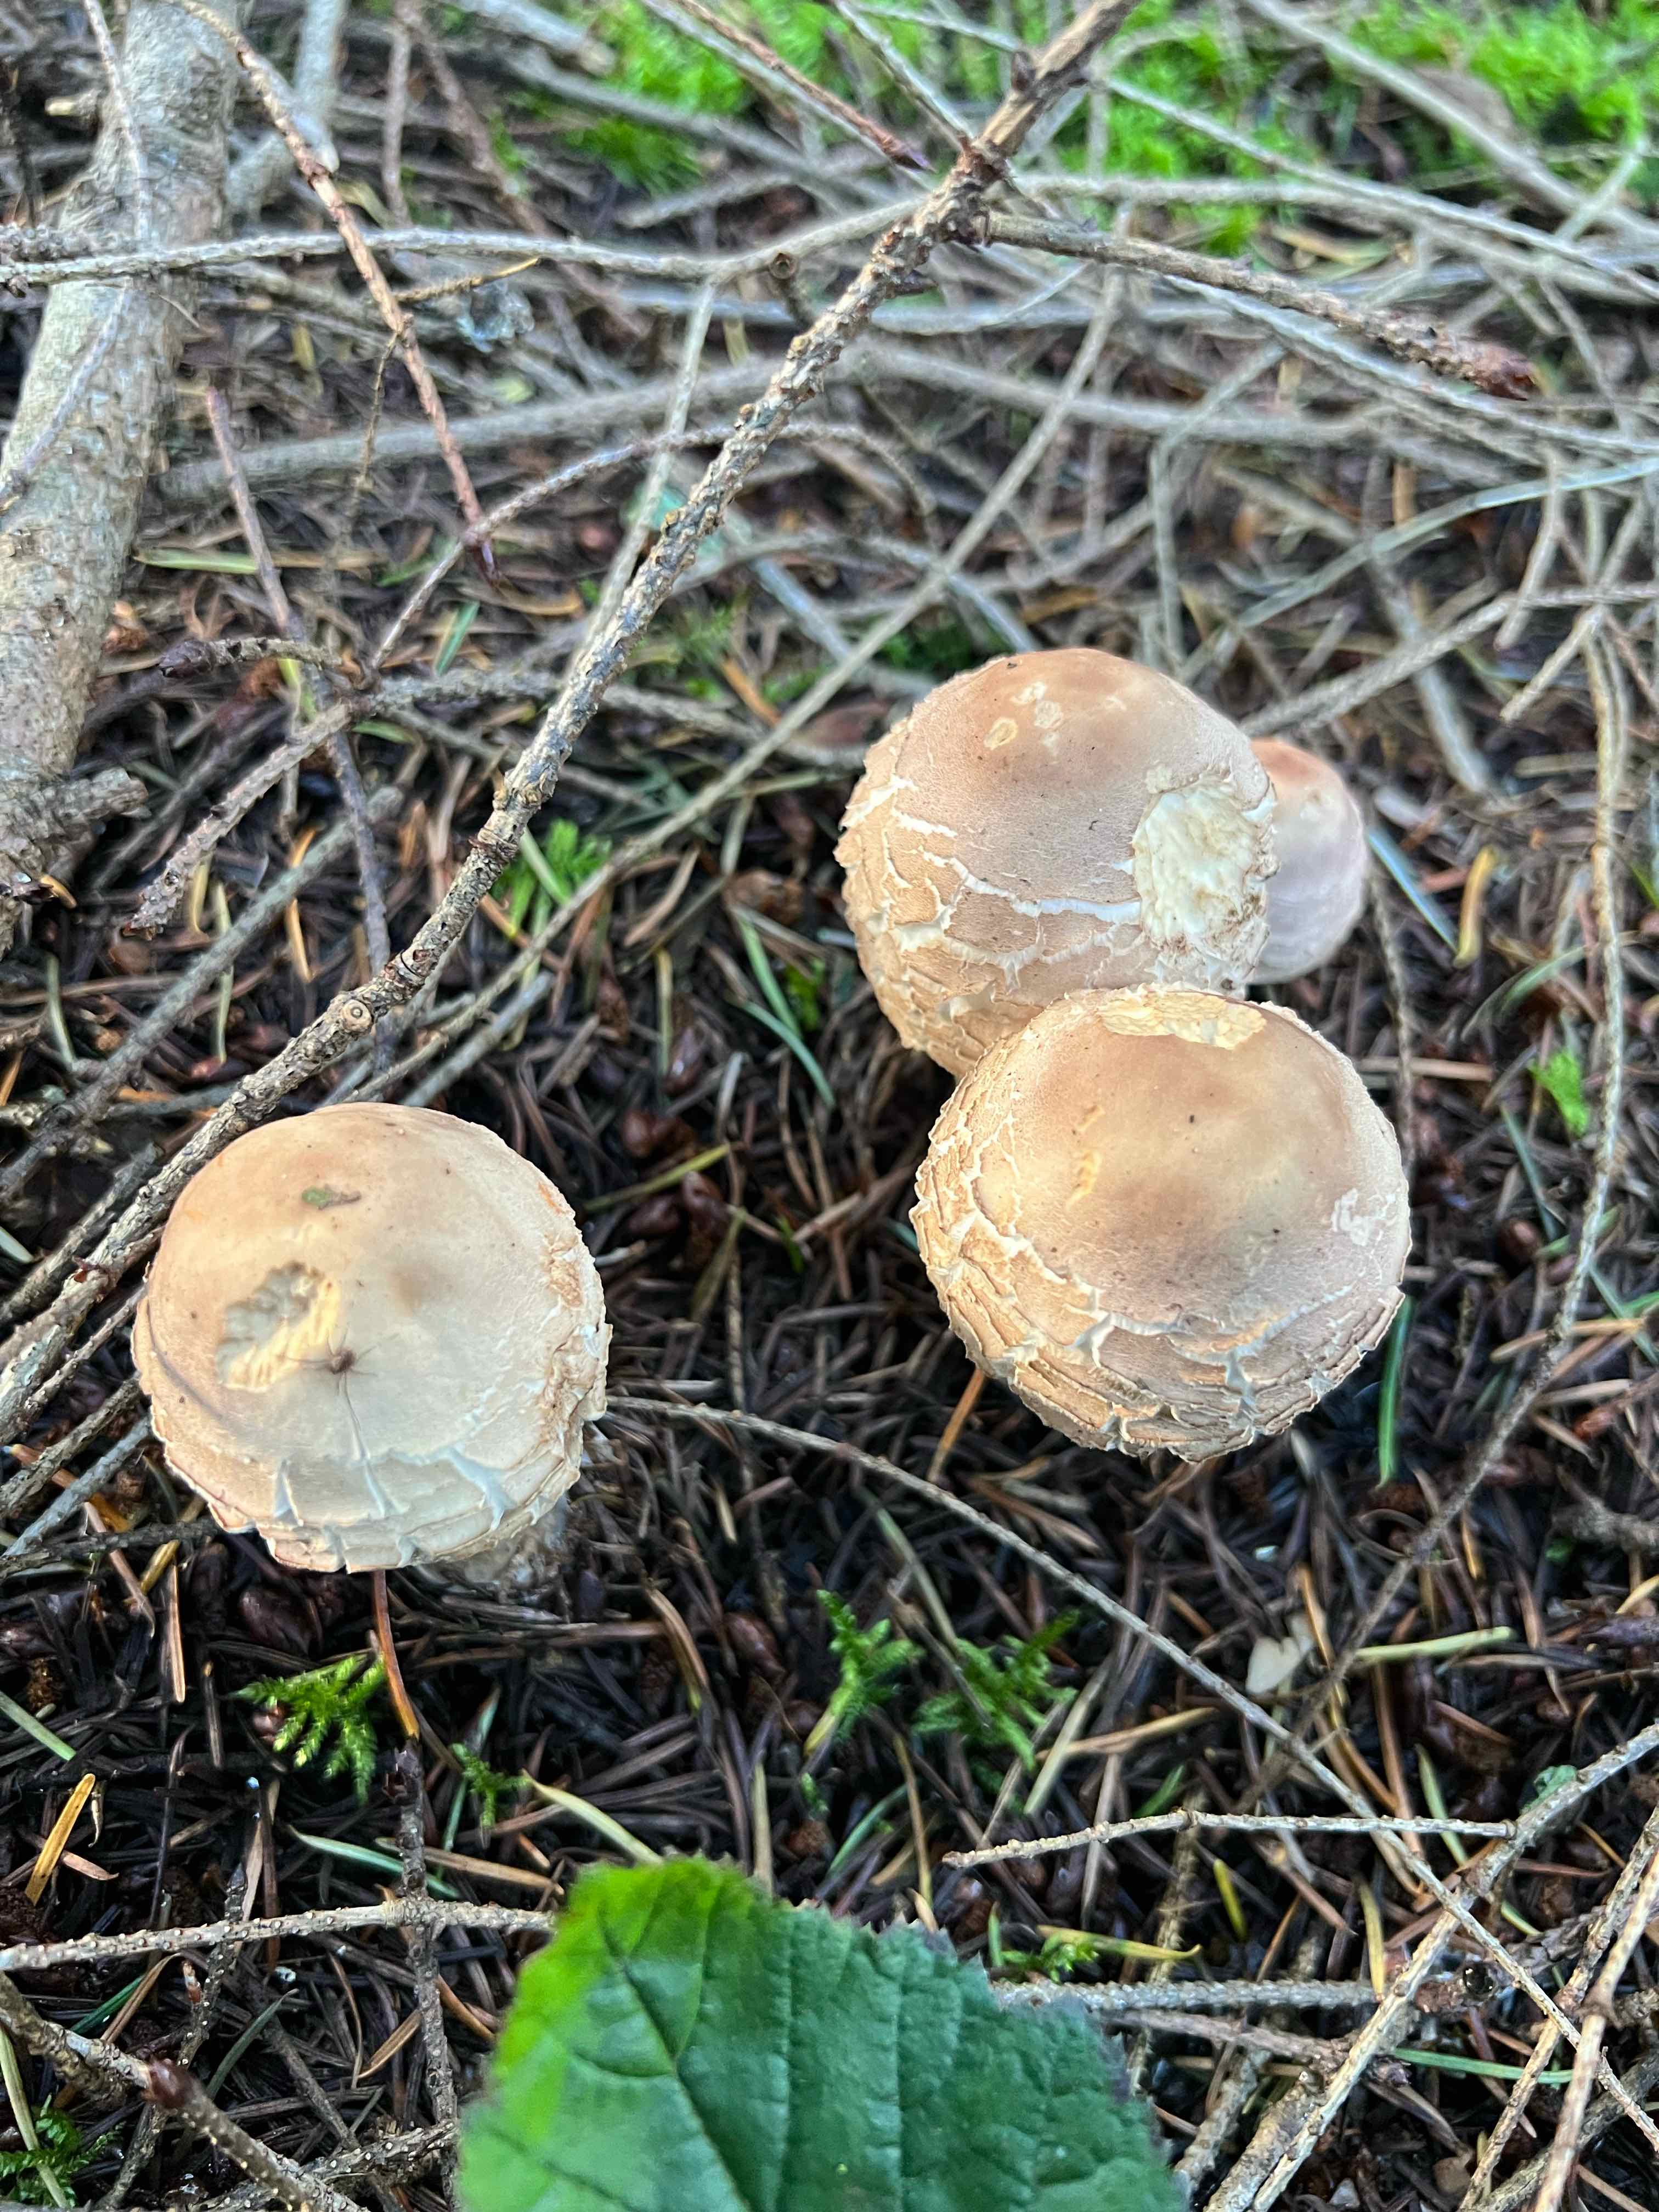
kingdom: Fungi
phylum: Basidiomycota
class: Agaricomycetes
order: Agaricales
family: Agaricaceae
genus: Chlorophyllum
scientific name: Chlorophyllum olivieri
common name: almindelig rabarberhat
